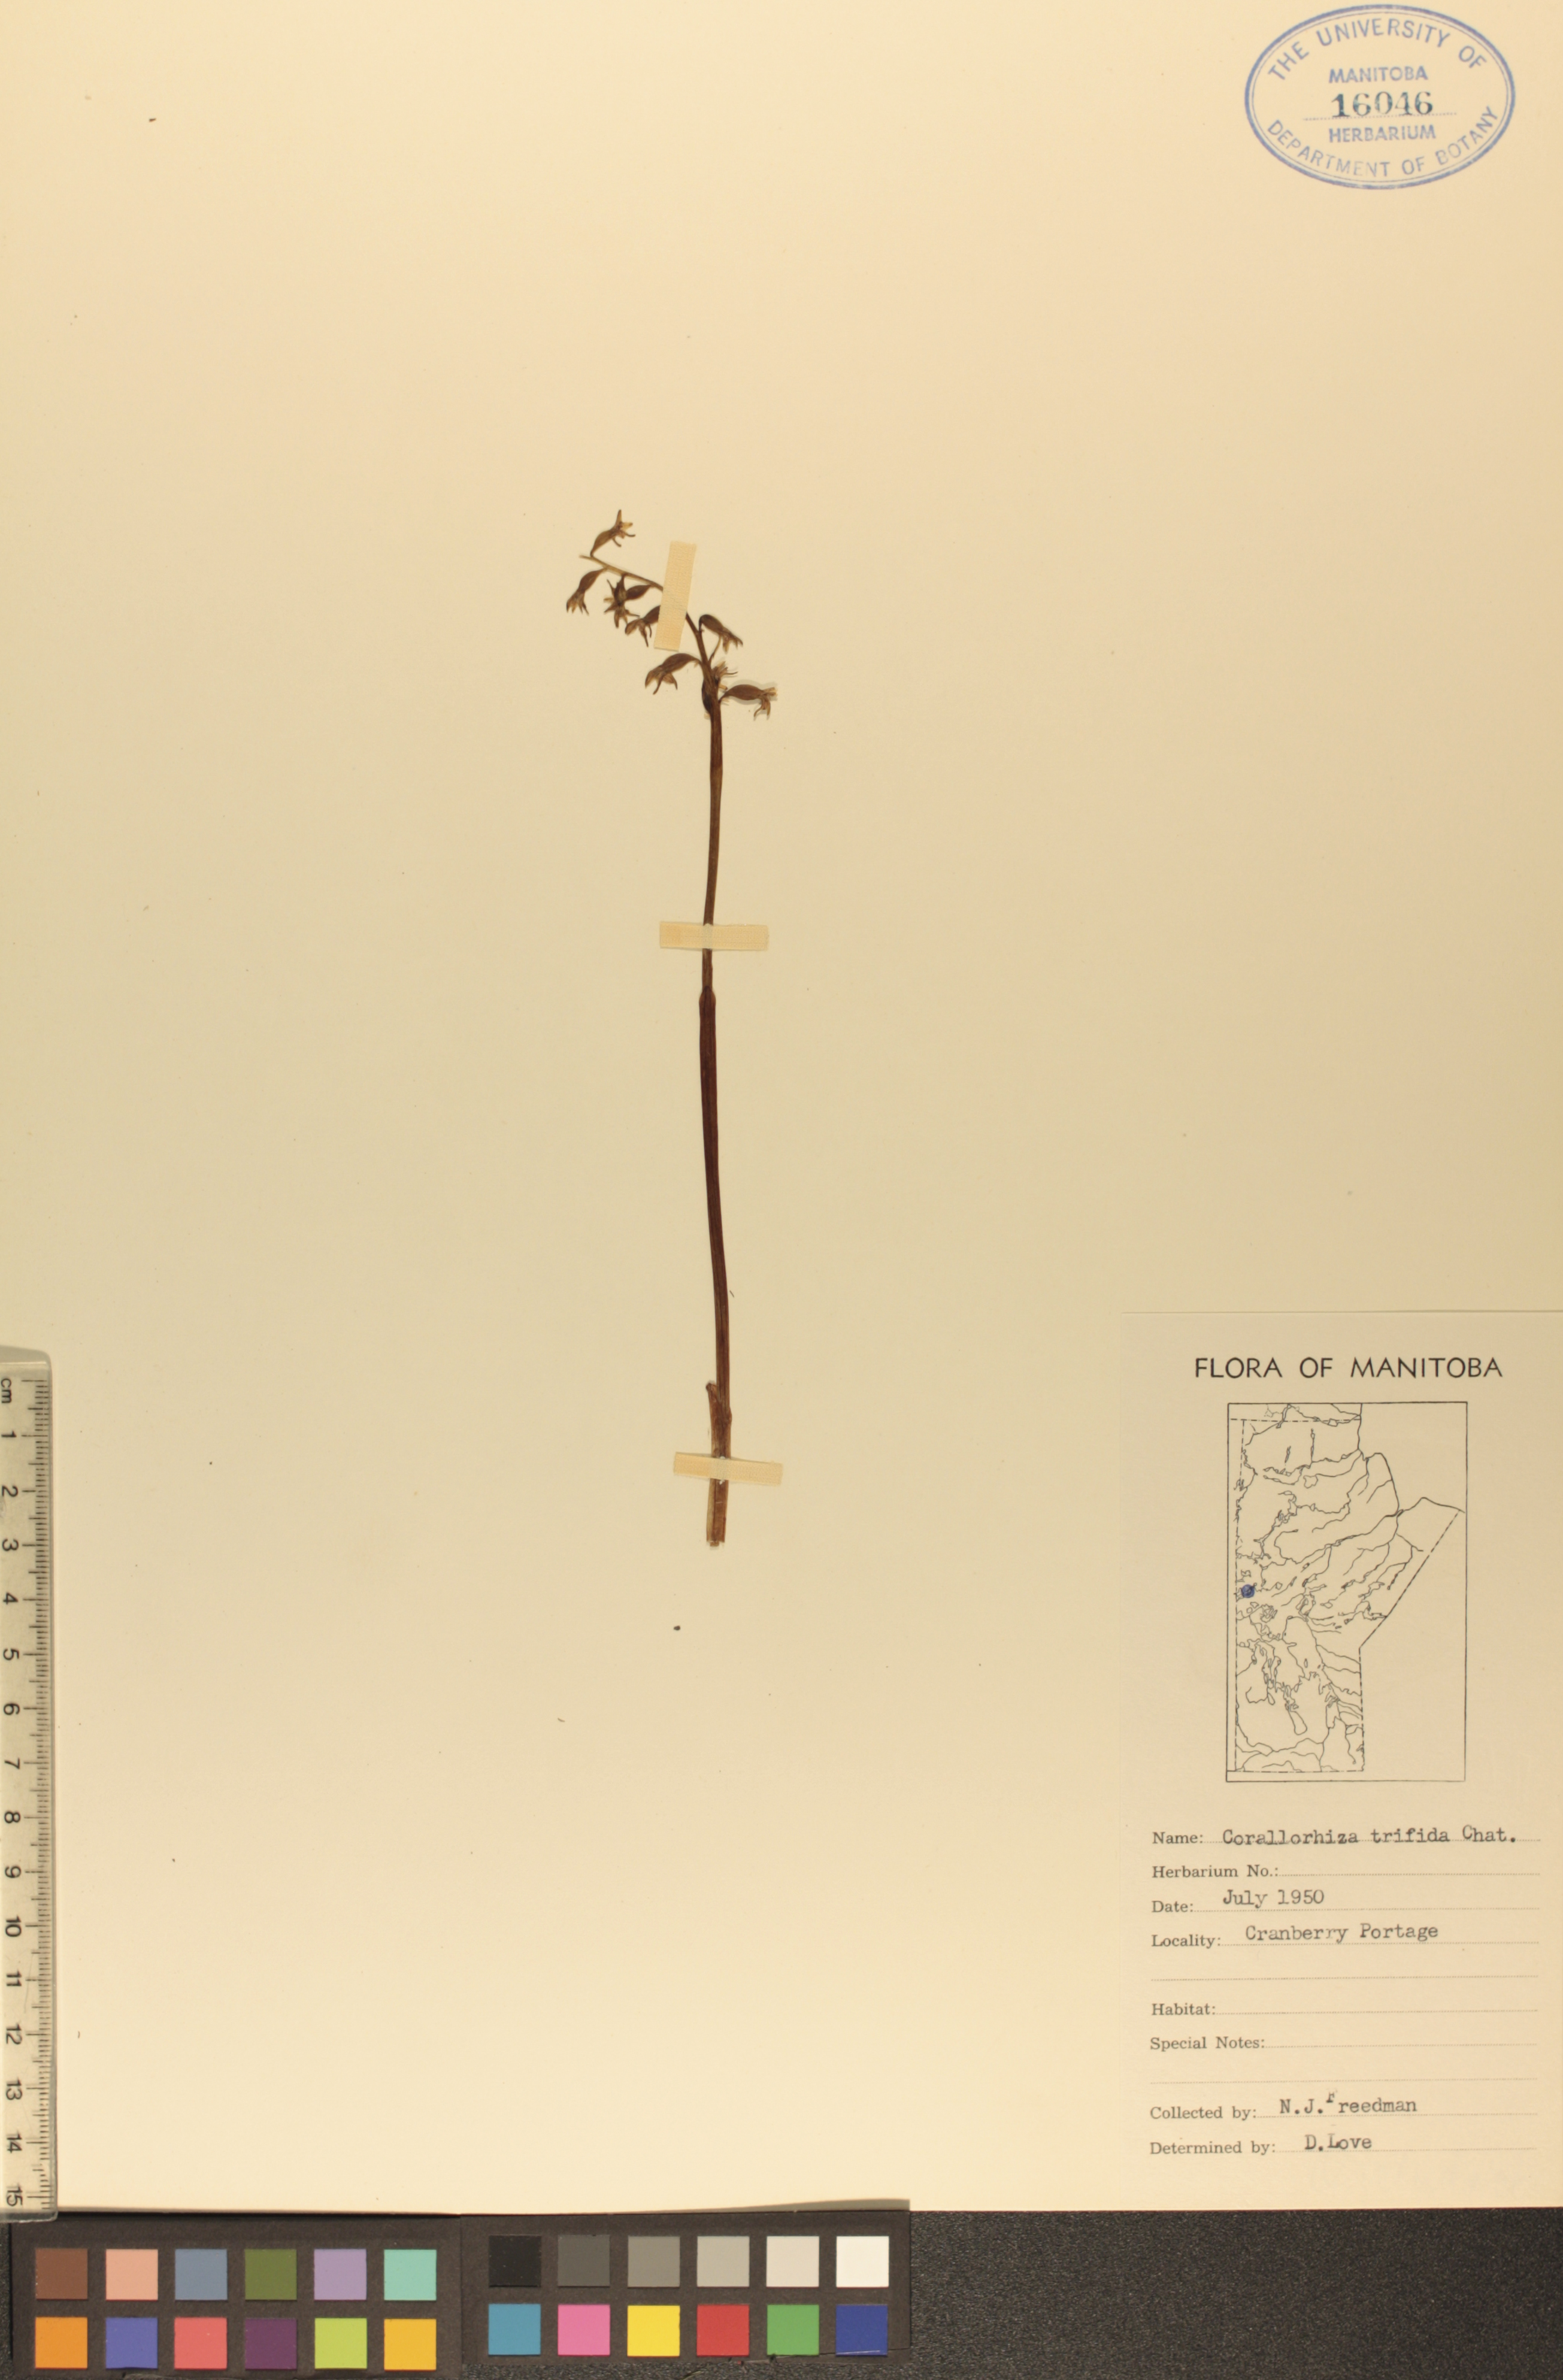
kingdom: Plantae
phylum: Tracheophyta
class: Liliopsida
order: Asparagales
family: Orchidaceae
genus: Corallorhiza
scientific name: Corallorhiza trifida
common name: Yellow coralroot
